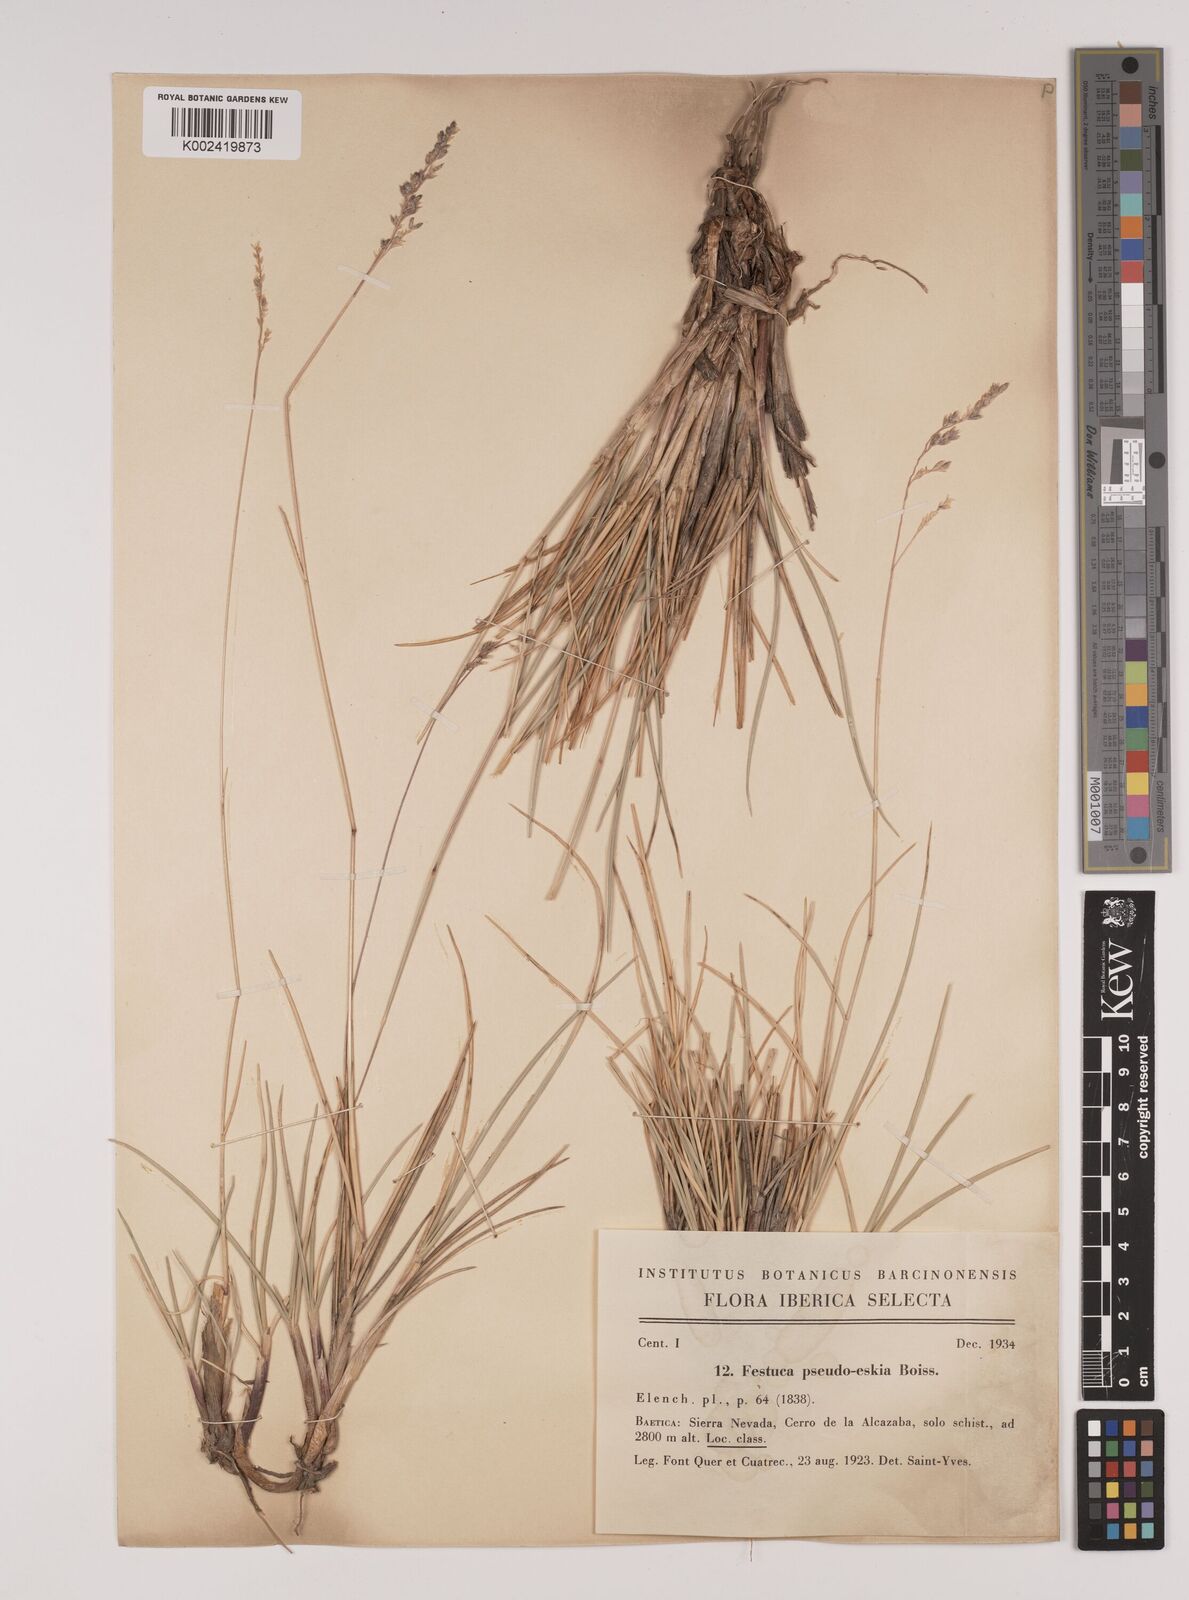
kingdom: Plantae
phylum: Tracheophyta
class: Liliopsida
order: Poales
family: Poaceae
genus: Festuca
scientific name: Festuca pseudeskia
